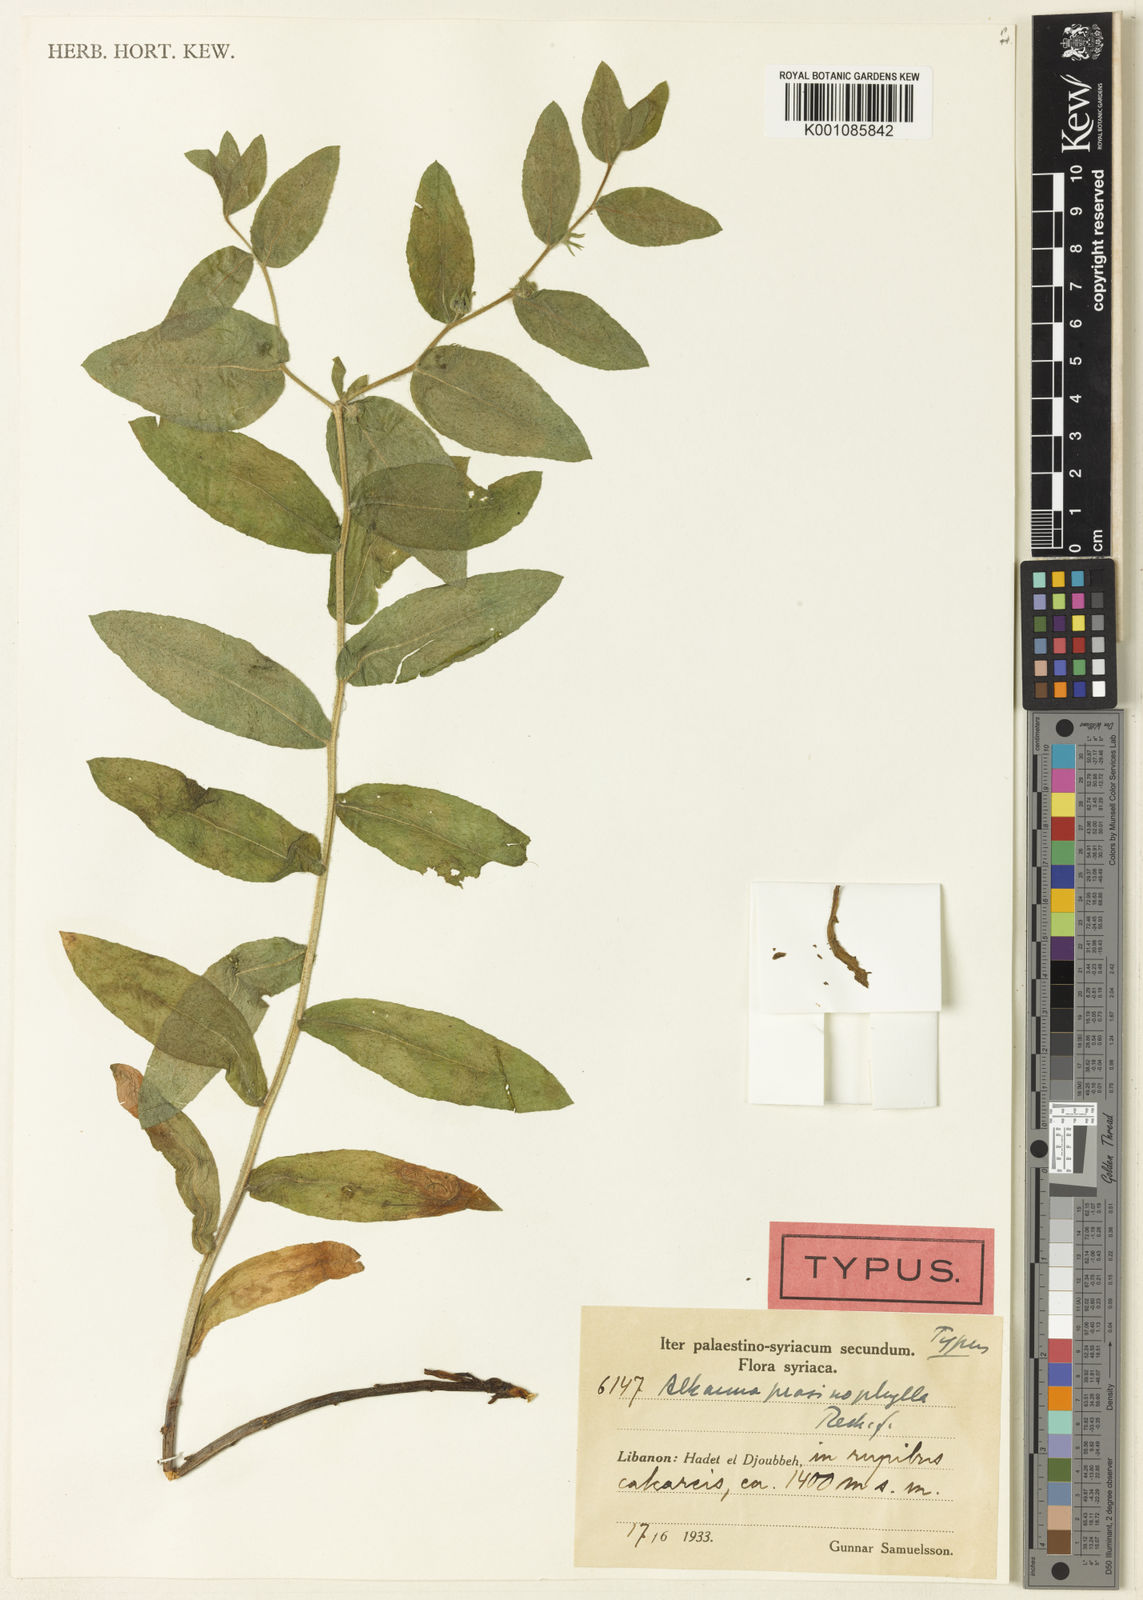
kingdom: Plantae
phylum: Tracheophyta
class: Magnoliopsida
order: Boraginales
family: Boraginaceae
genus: Alkanna
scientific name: Alkanna prasinophylla
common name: Green-leaved alkanet
